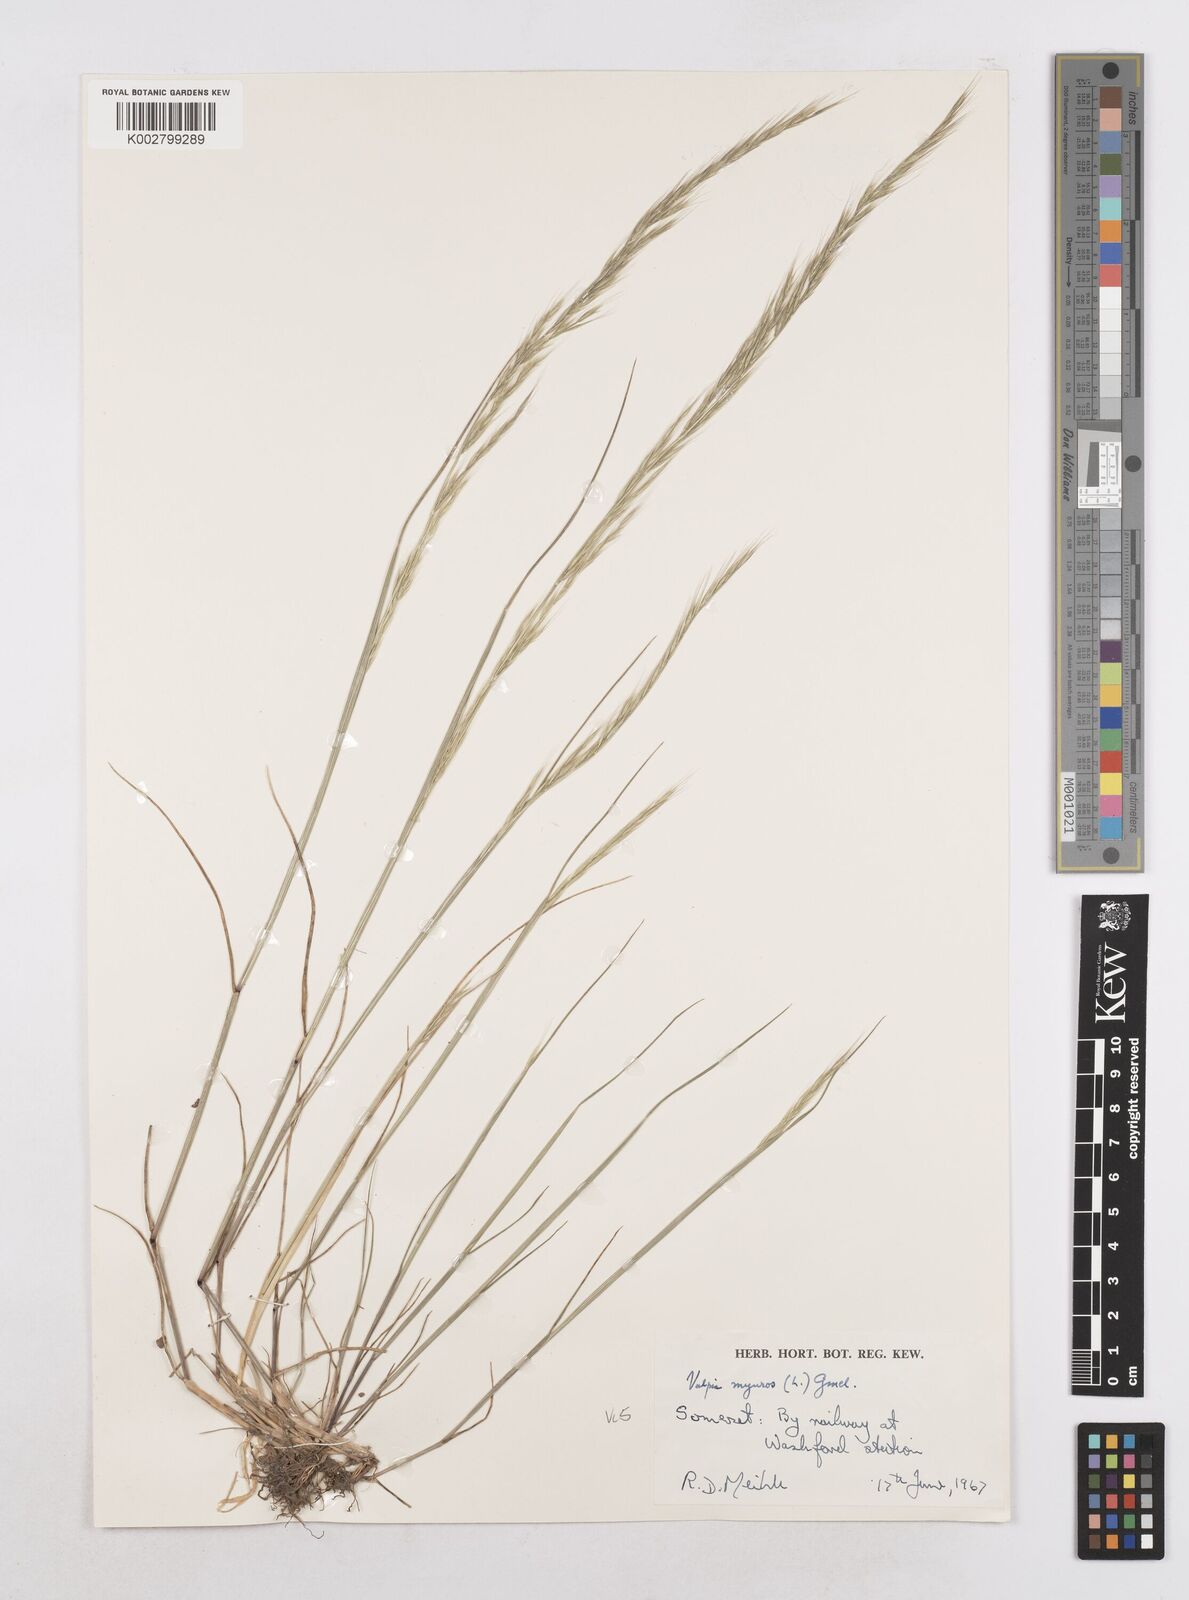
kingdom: Plantae
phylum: Tracheophyta
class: Liliopsida
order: Poales
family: Poaceae
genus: Festuca
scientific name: Festuca myuros
